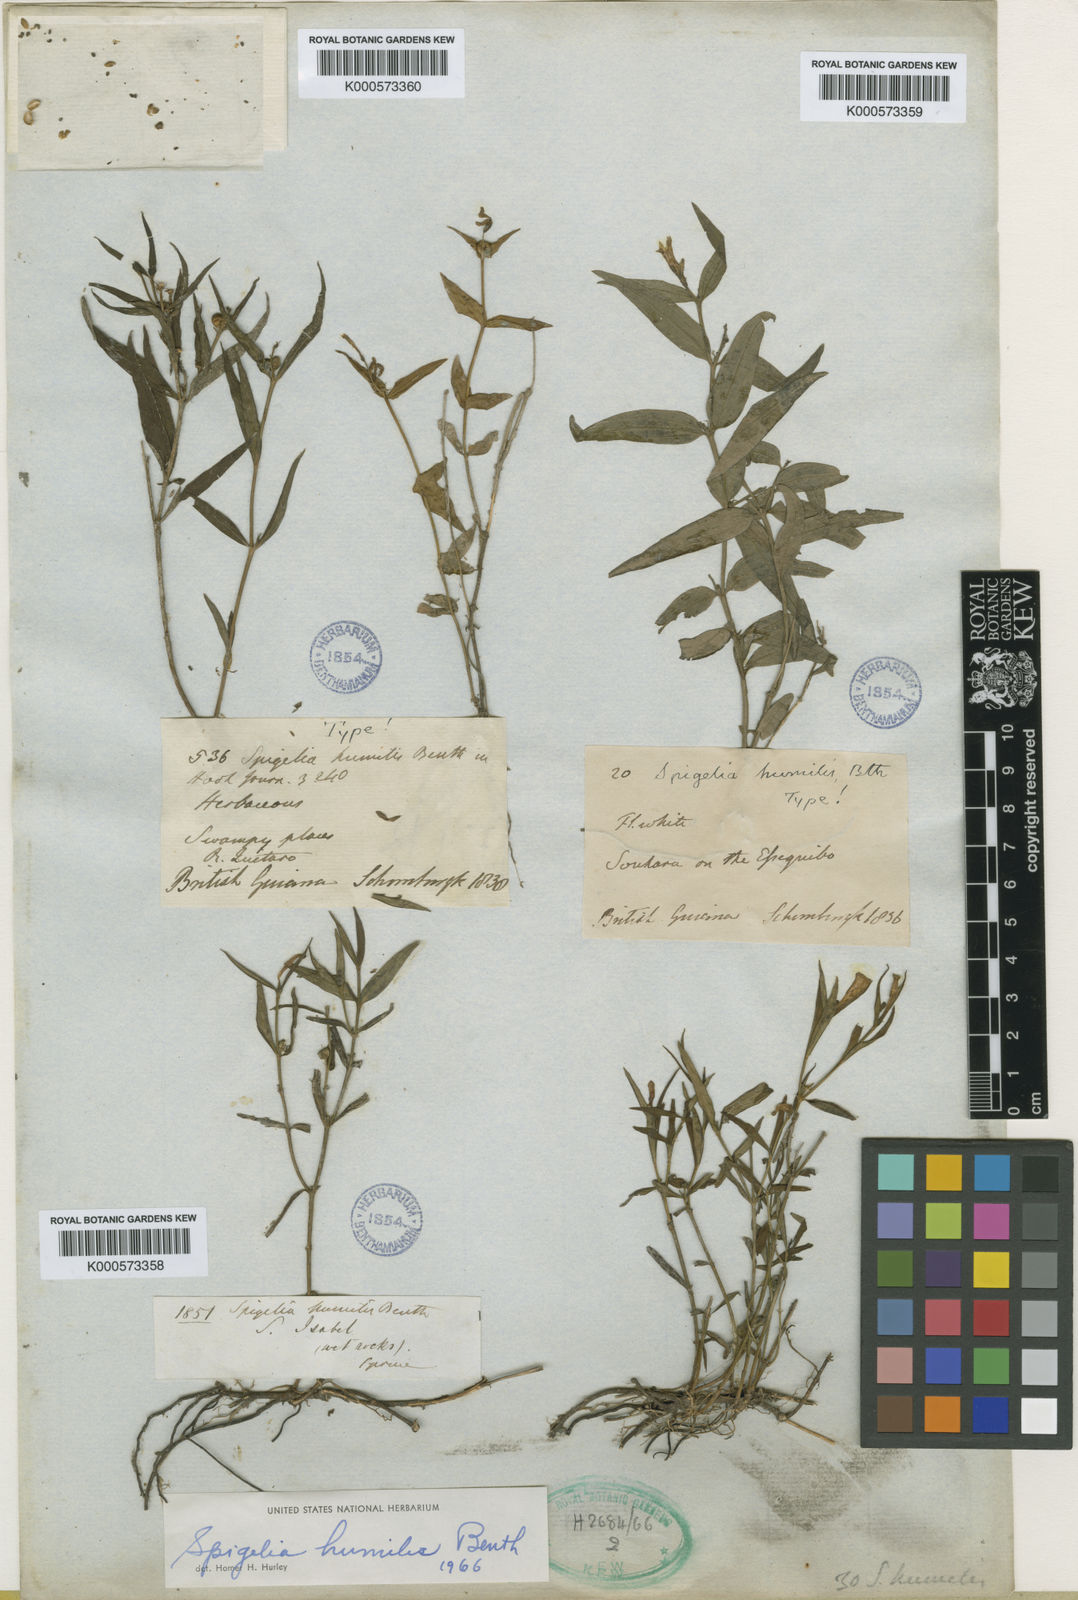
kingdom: Plantae
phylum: Tracheophyta
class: Magnoliopsida
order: Gentianales
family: Loganiaceae
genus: Spigelia
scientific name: Spigelia
